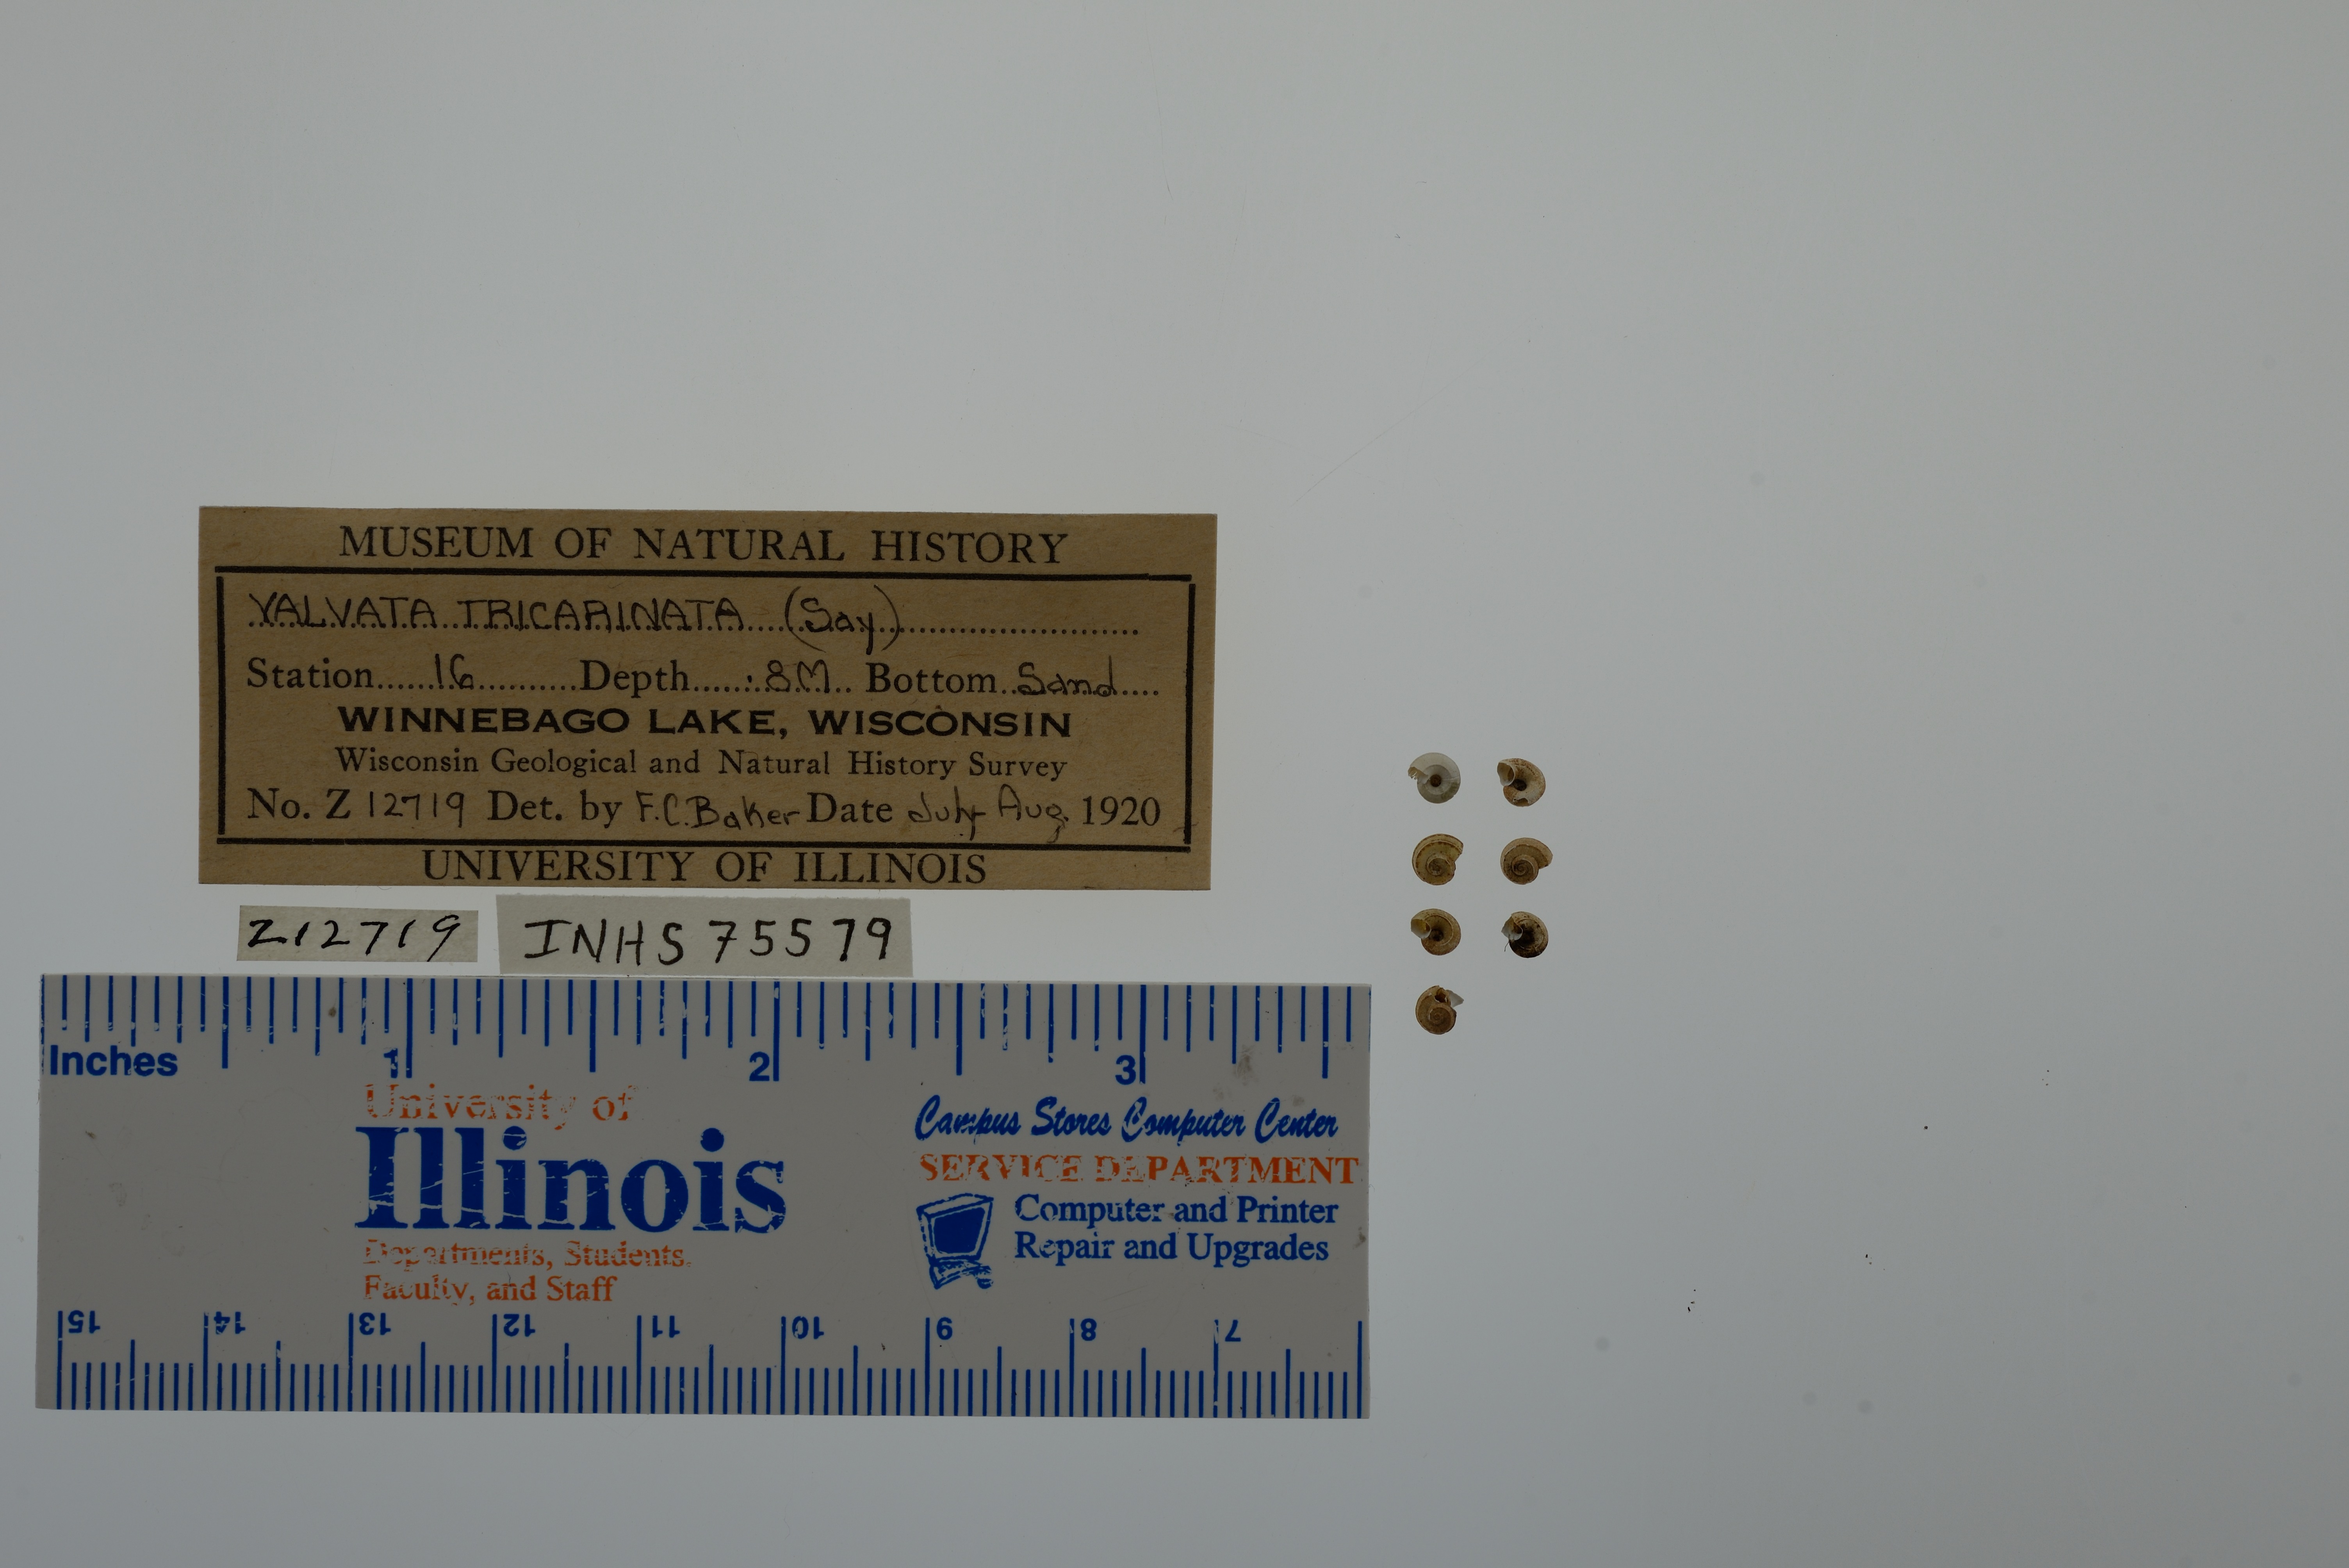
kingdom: Animalia
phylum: Mollusca
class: Gastropoda
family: Valvatidae
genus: Valvata
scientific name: Valvata tricarinata
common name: Three-ridge valvata
